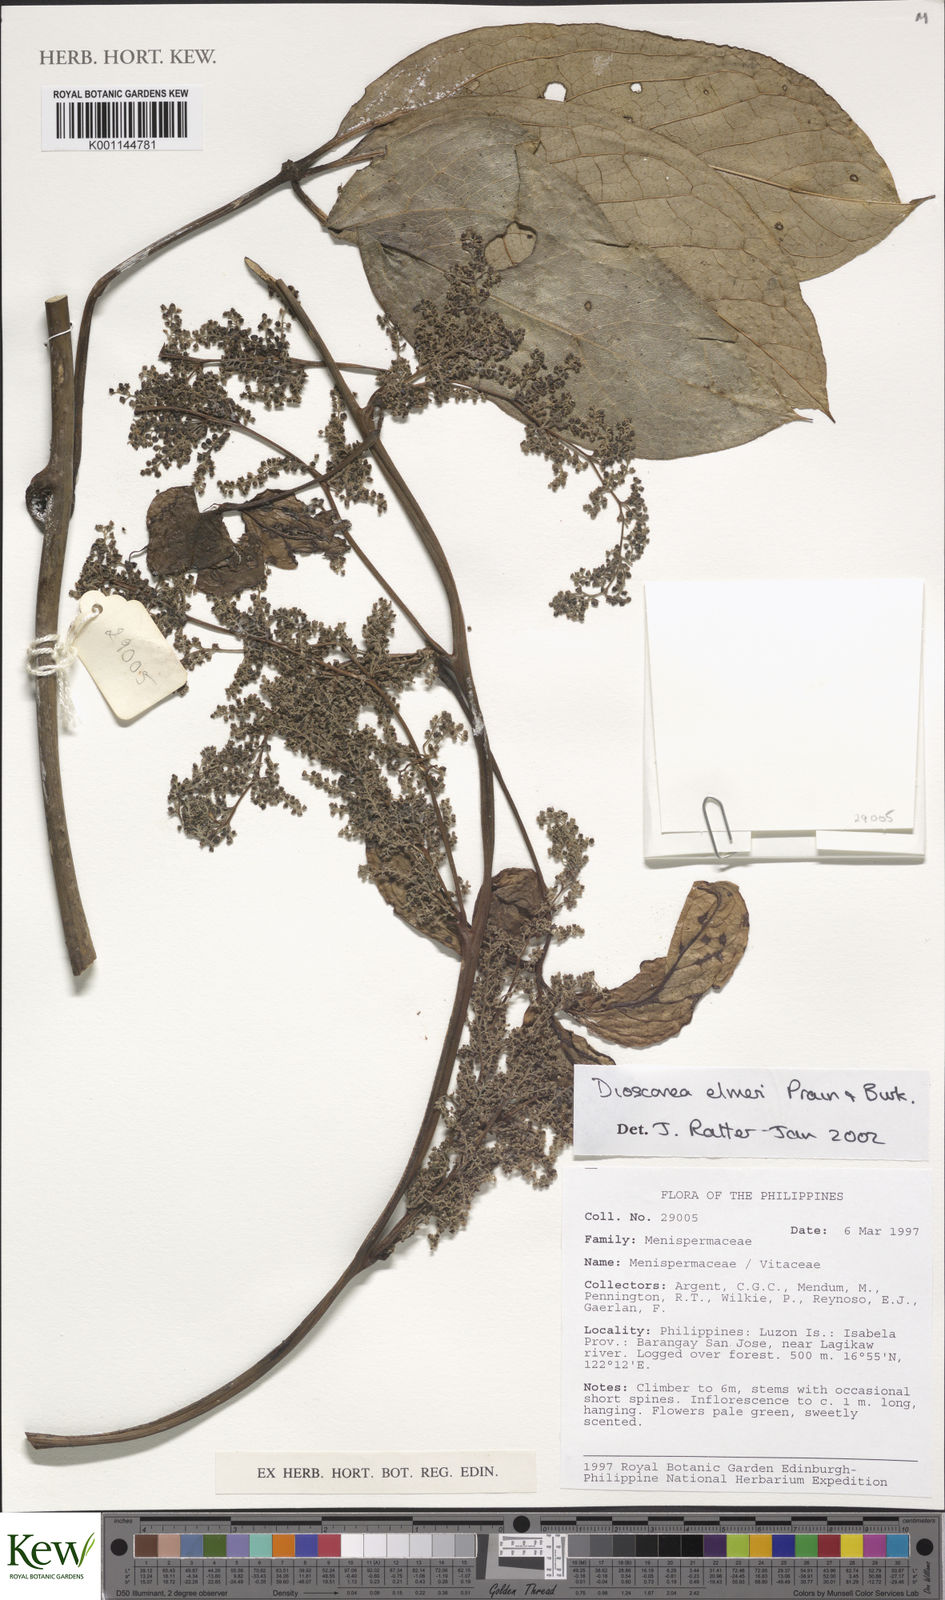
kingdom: Plantae
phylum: Tracheophyta
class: Liliopsida
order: Dioscoreales
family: Dioscoreaceae
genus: Dioscorea
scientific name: Dioscorea cumingii
